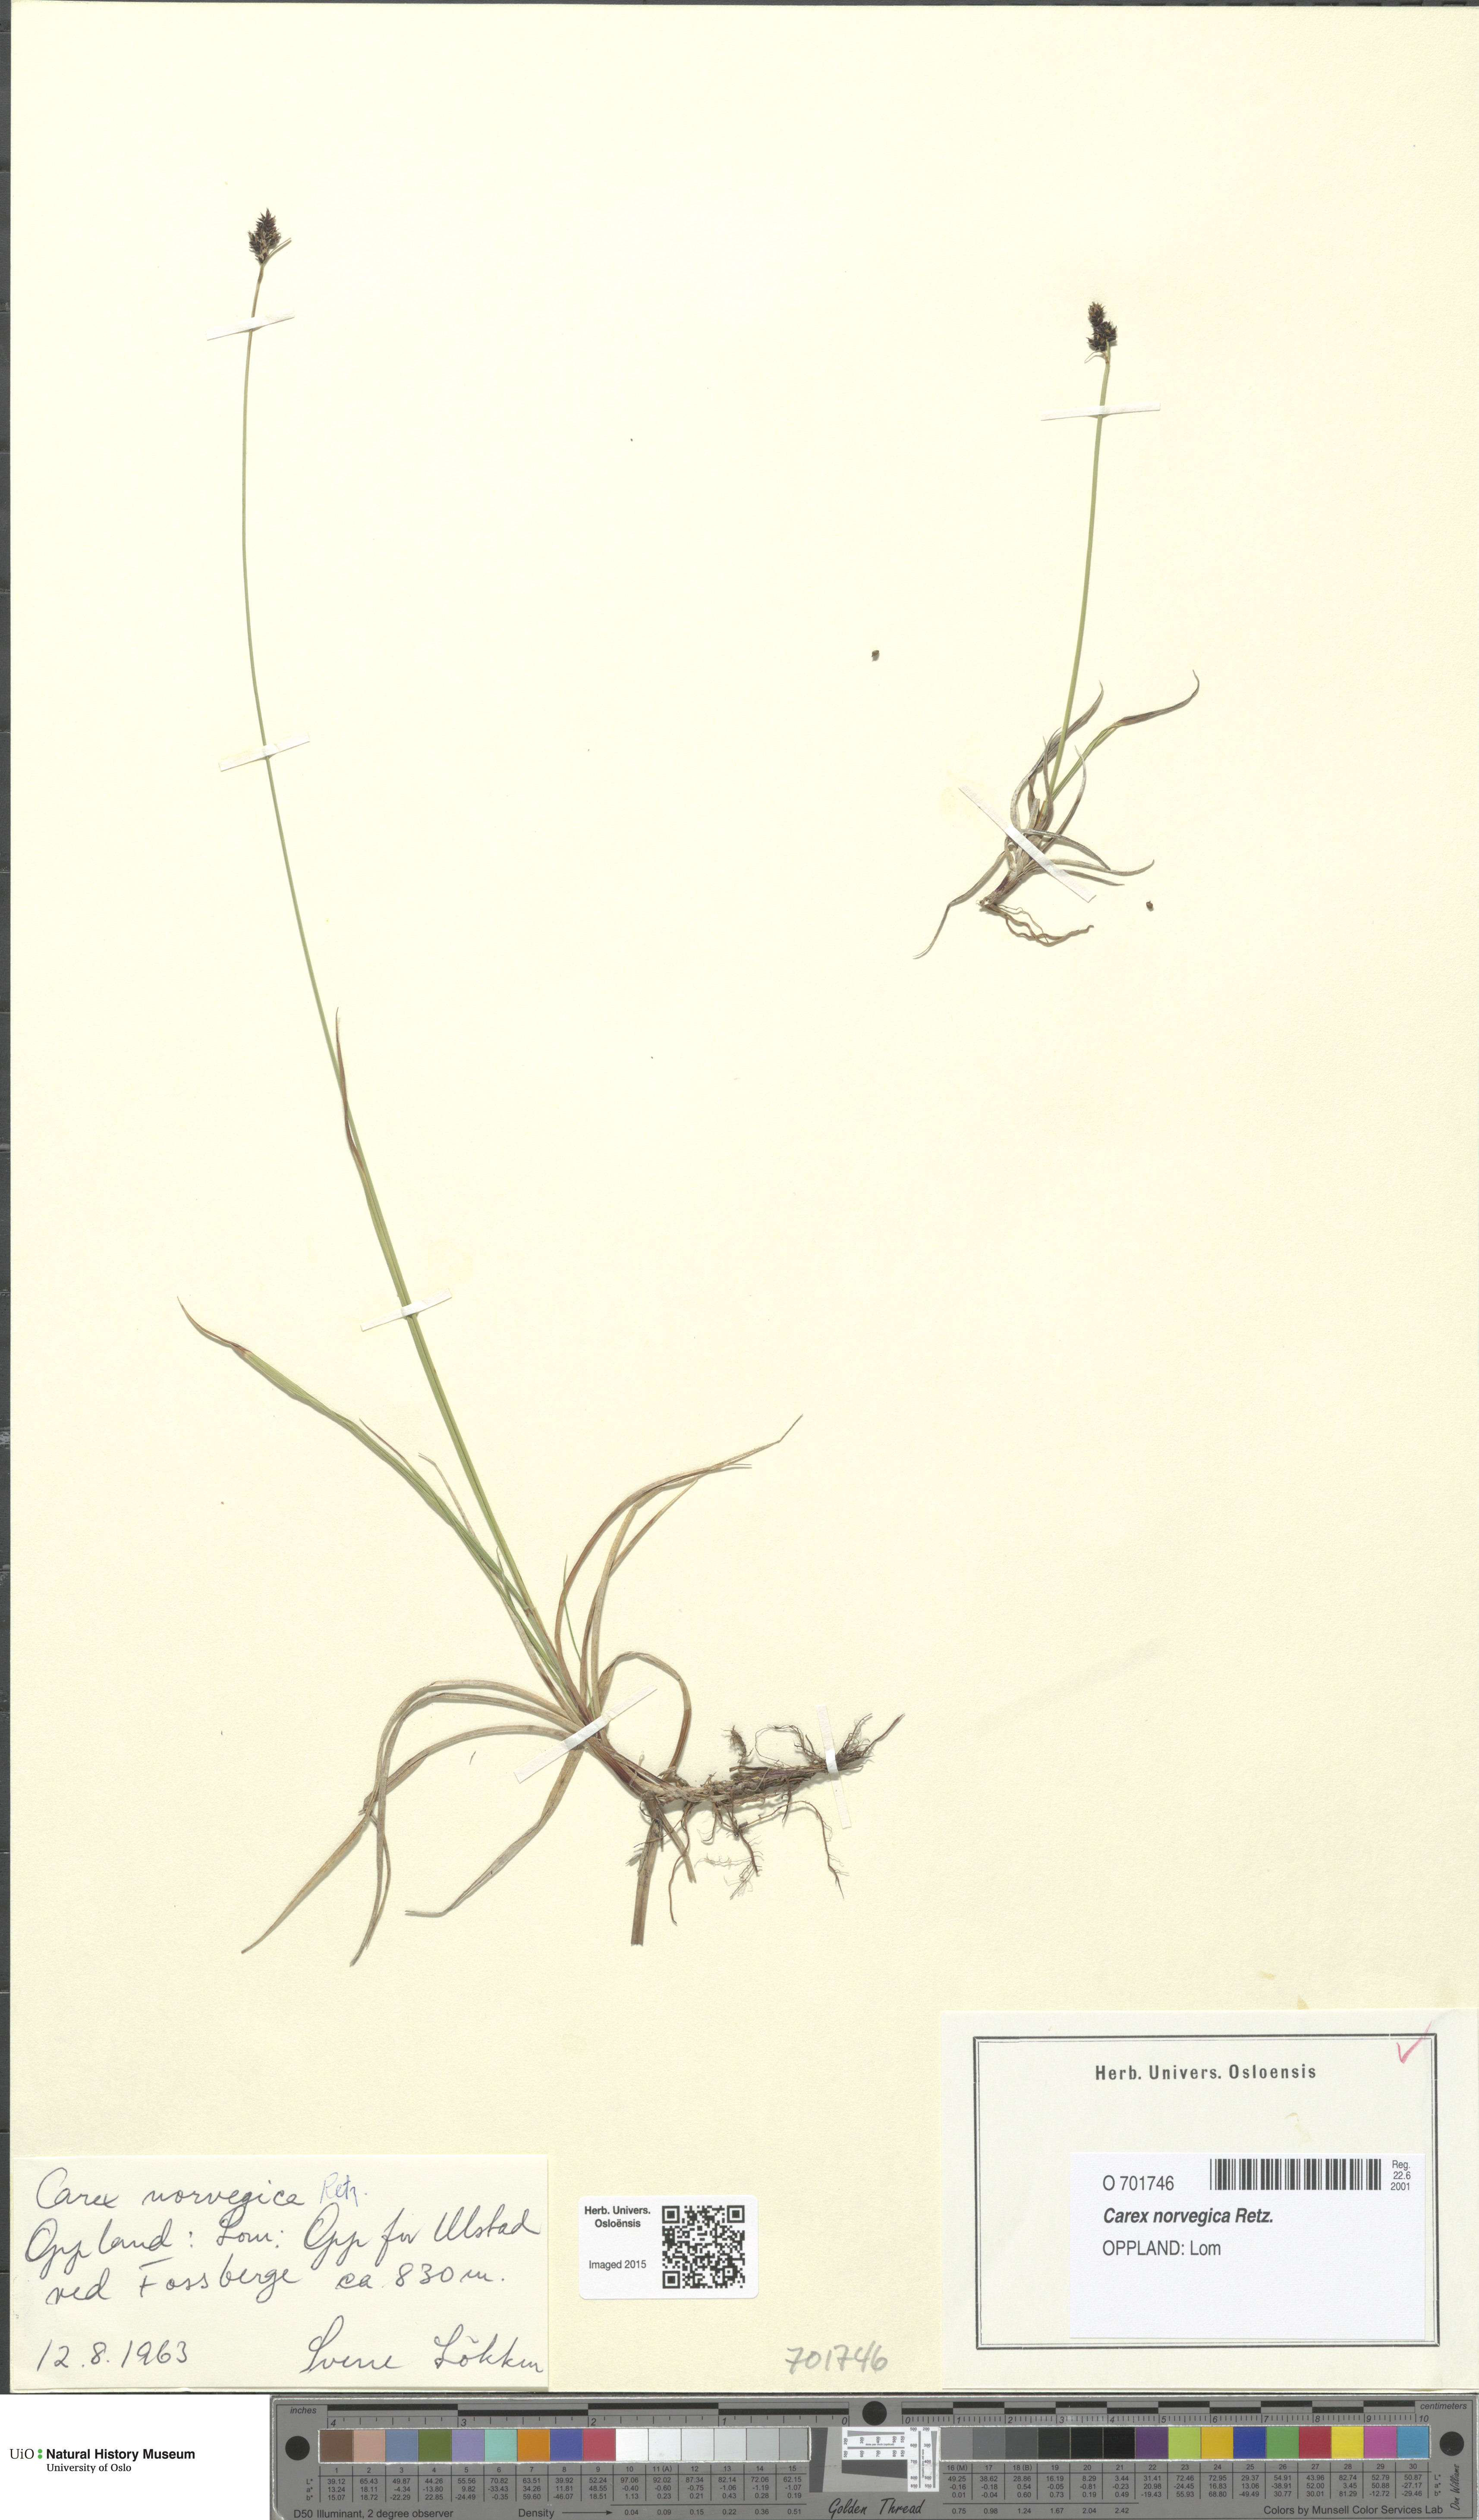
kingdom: Plantae
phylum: Tracheophyta
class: Liliopsida
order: Poales
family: Cyperaceae
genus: Carex
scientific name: Carex norvegica
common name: Close-headed alpine-sedge
